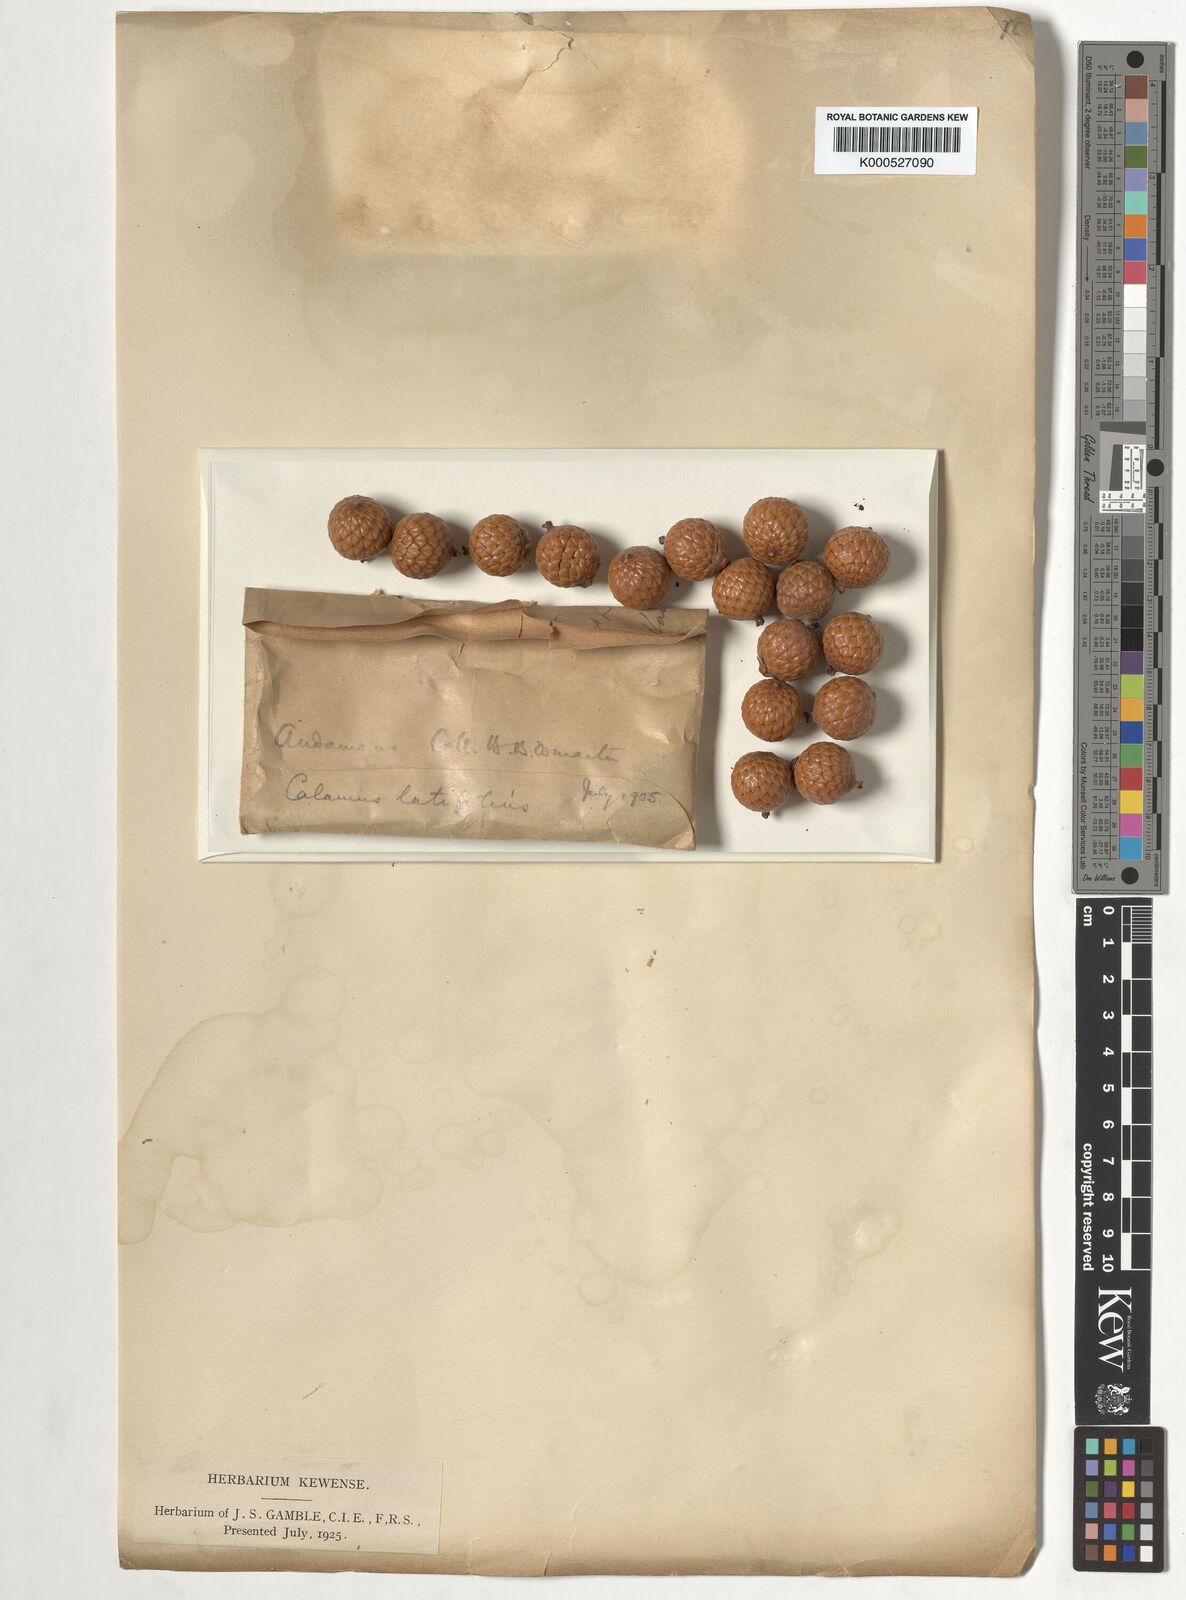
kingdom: Plantae
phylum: Tracheophyta
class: Liliopsida
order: Arecales
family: Arecaceae
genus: Calamus
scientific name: Calamus latifolius
